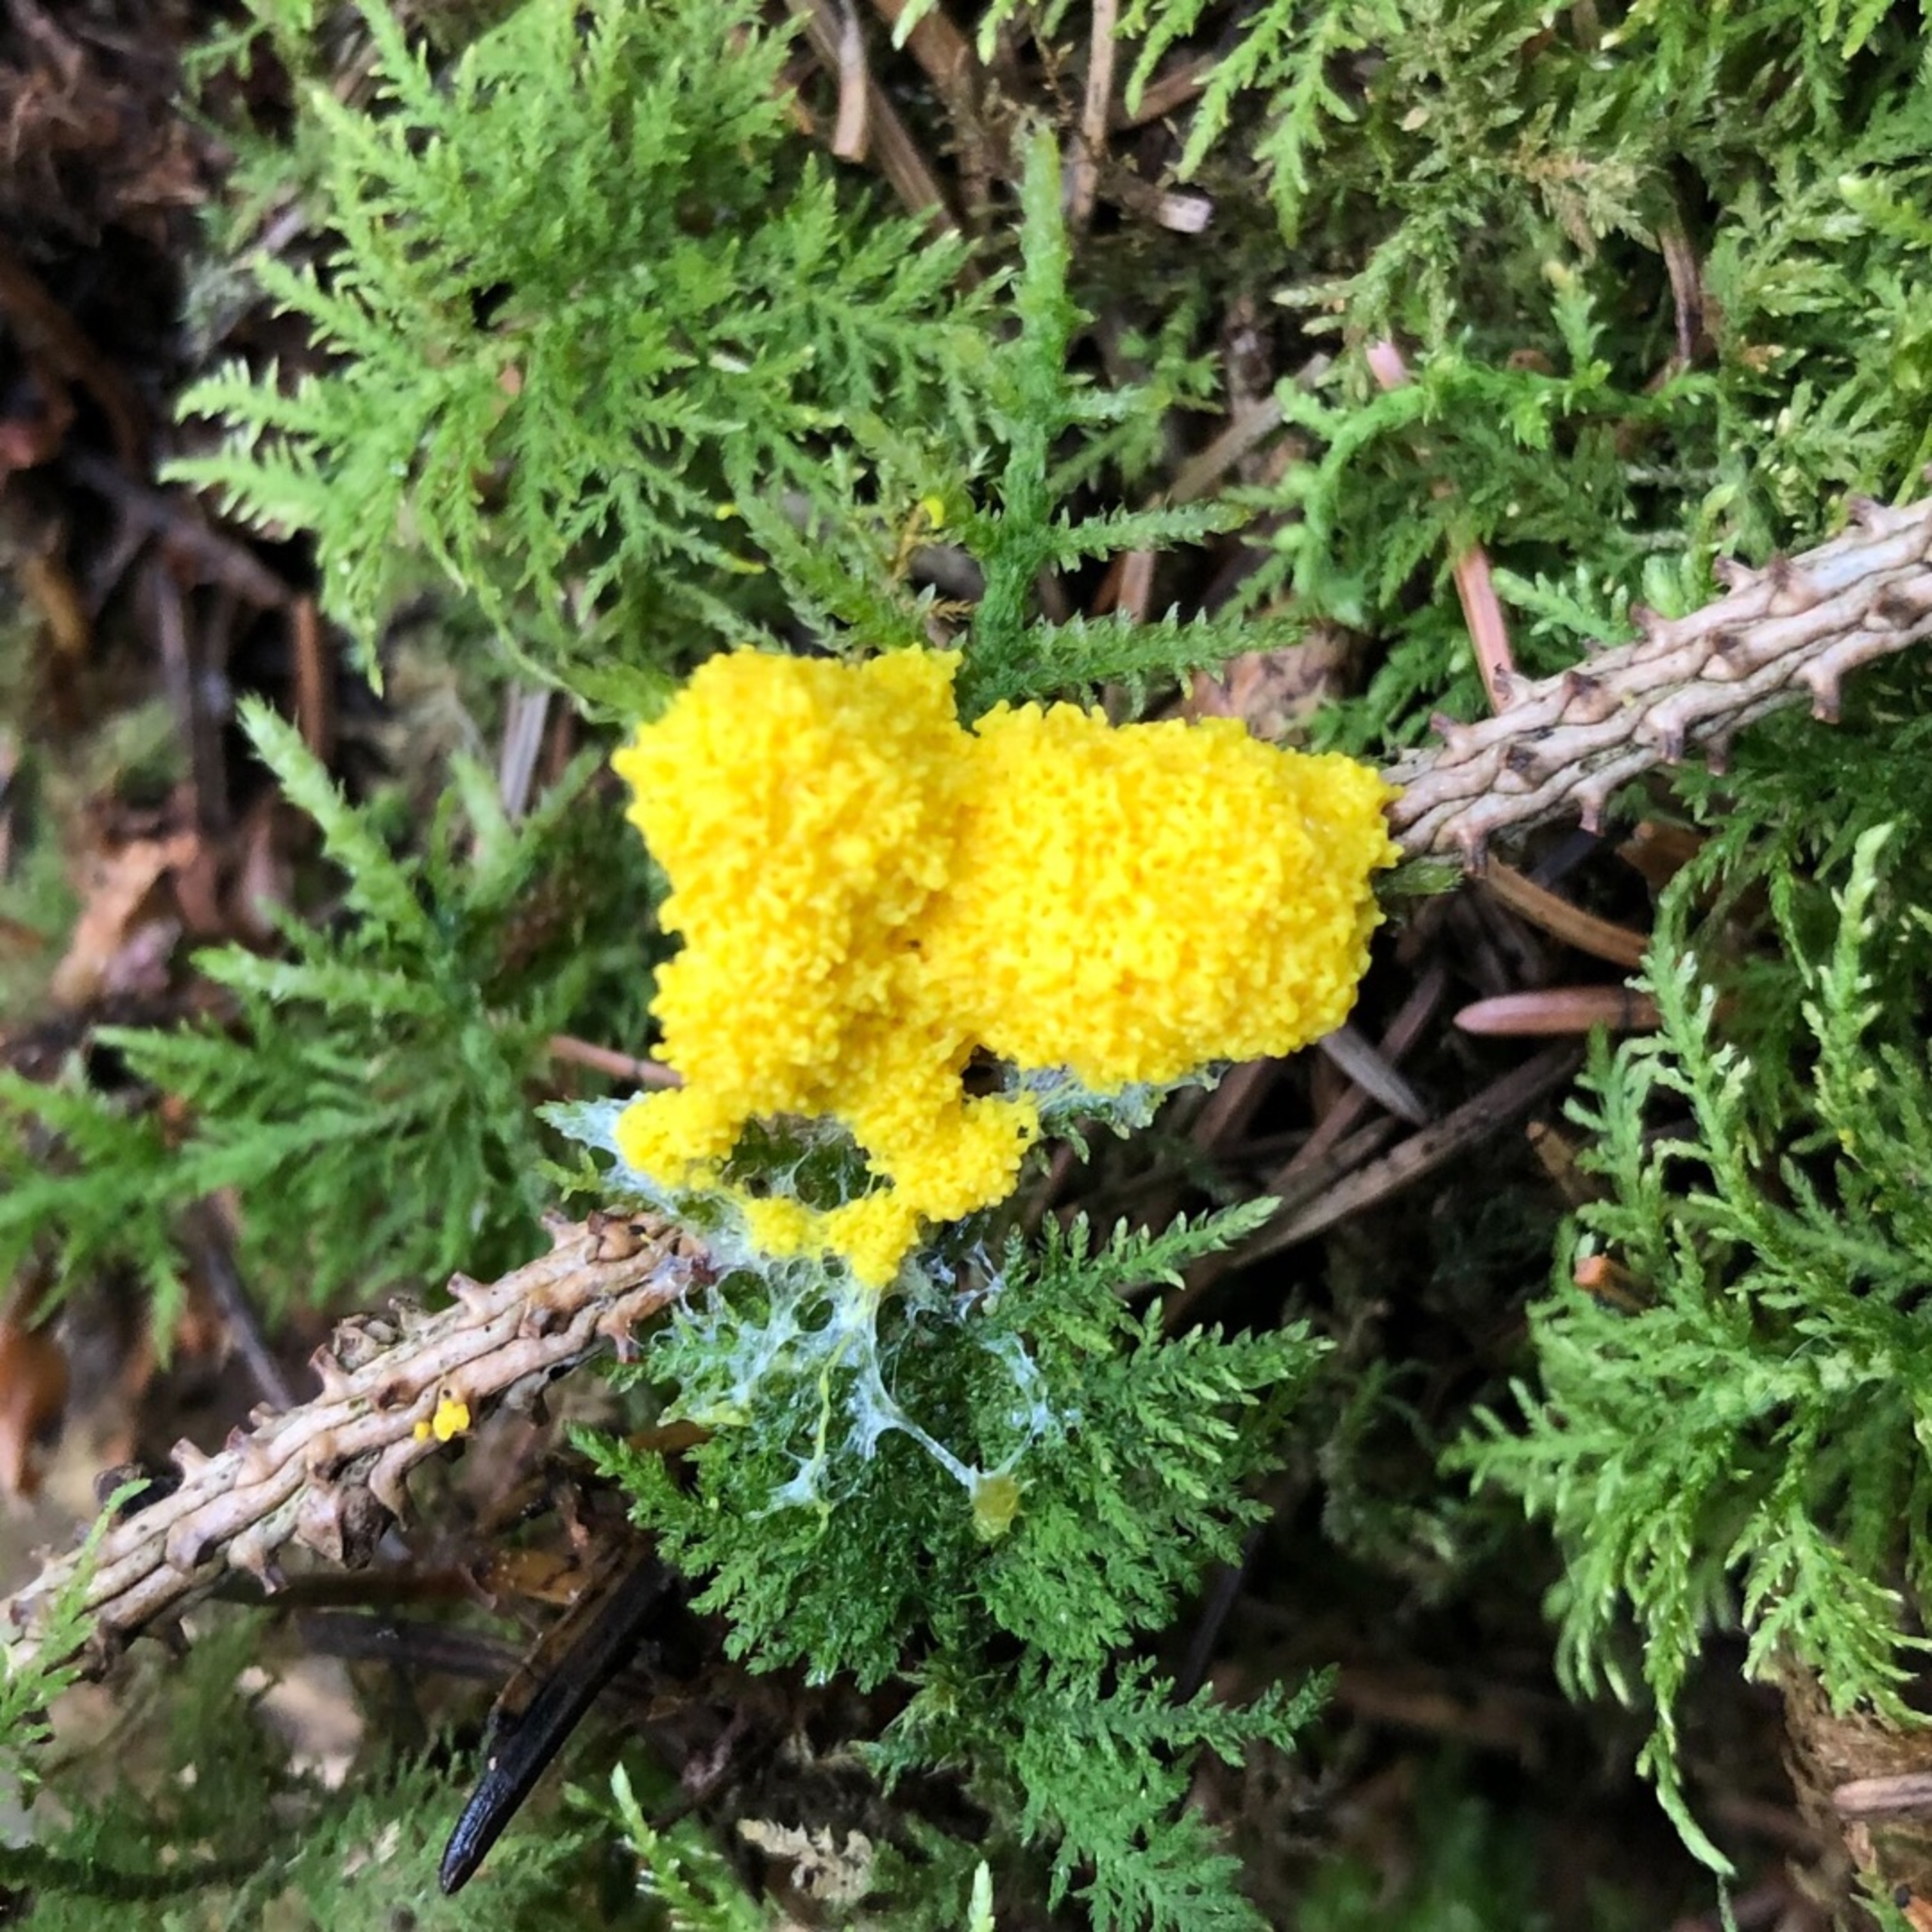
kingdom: Protozoa
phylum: Mycetozoa
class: Myxomycetes
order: Physarales
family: Physaraceae
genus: Fuligo
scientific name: Fuligo septica
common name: Gul troldsmør
